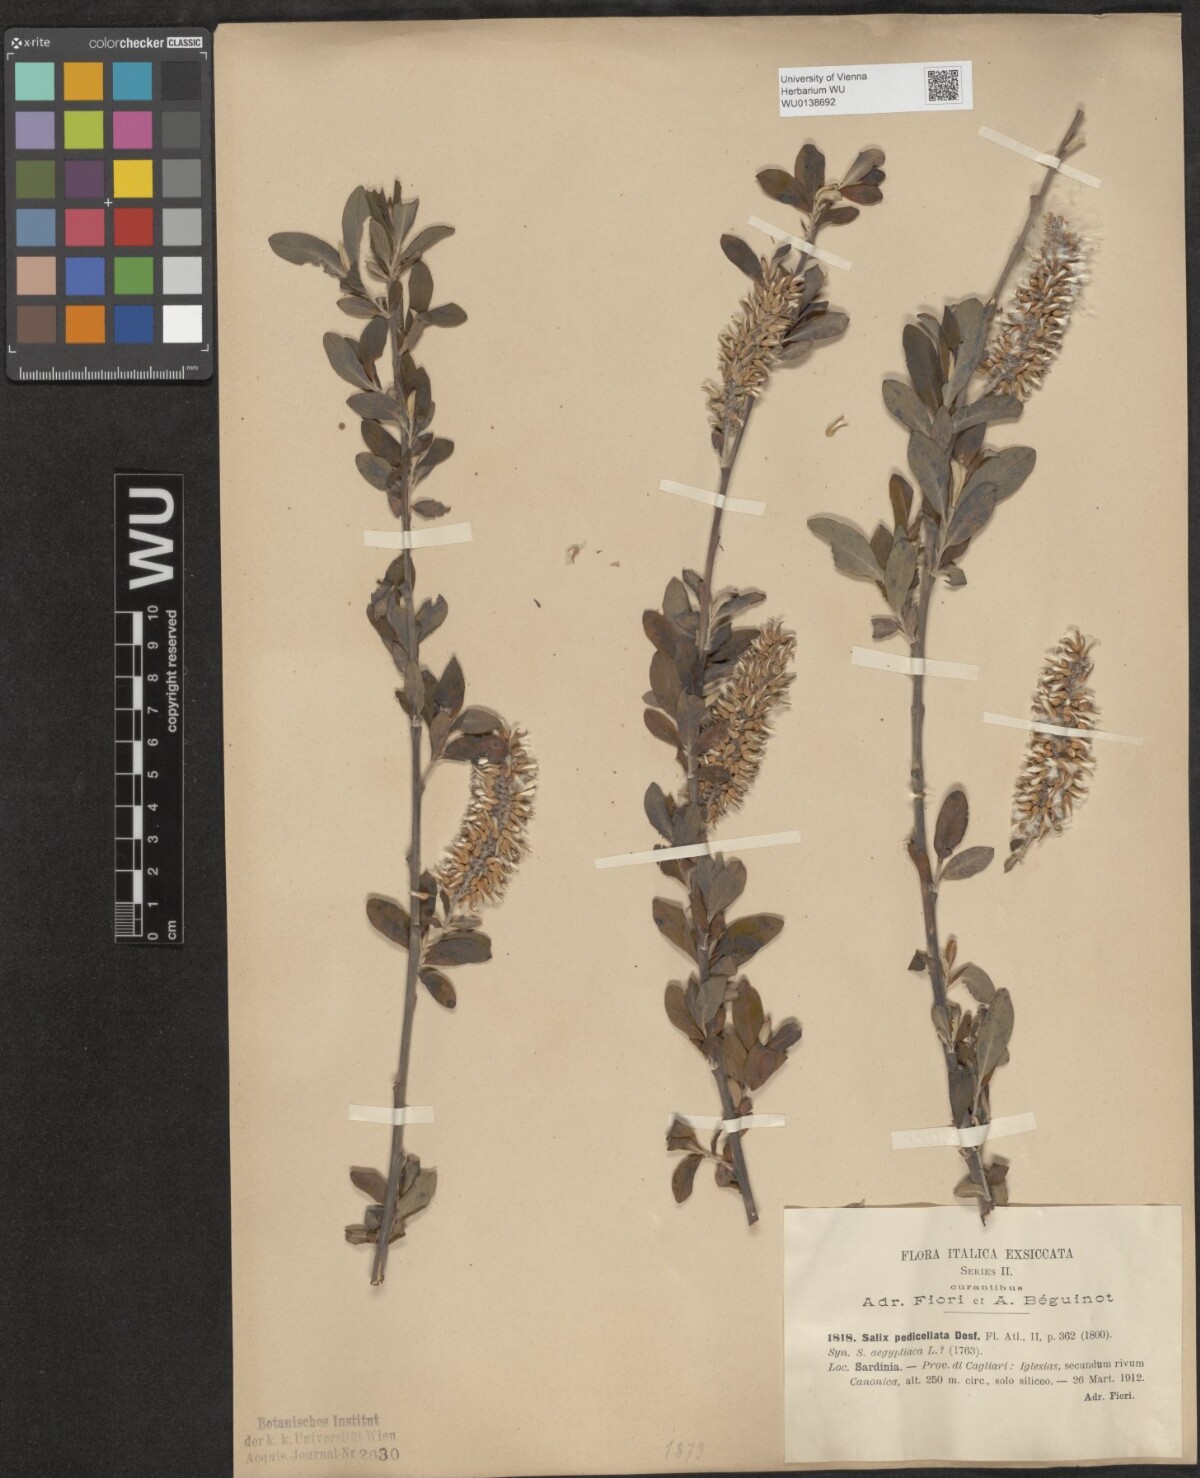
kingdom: Plantae
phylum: Tracheophyta
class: Magnoliopsida
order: Malpighiales
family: Salicaceae
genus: Salix
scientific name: Salix pedicellata
